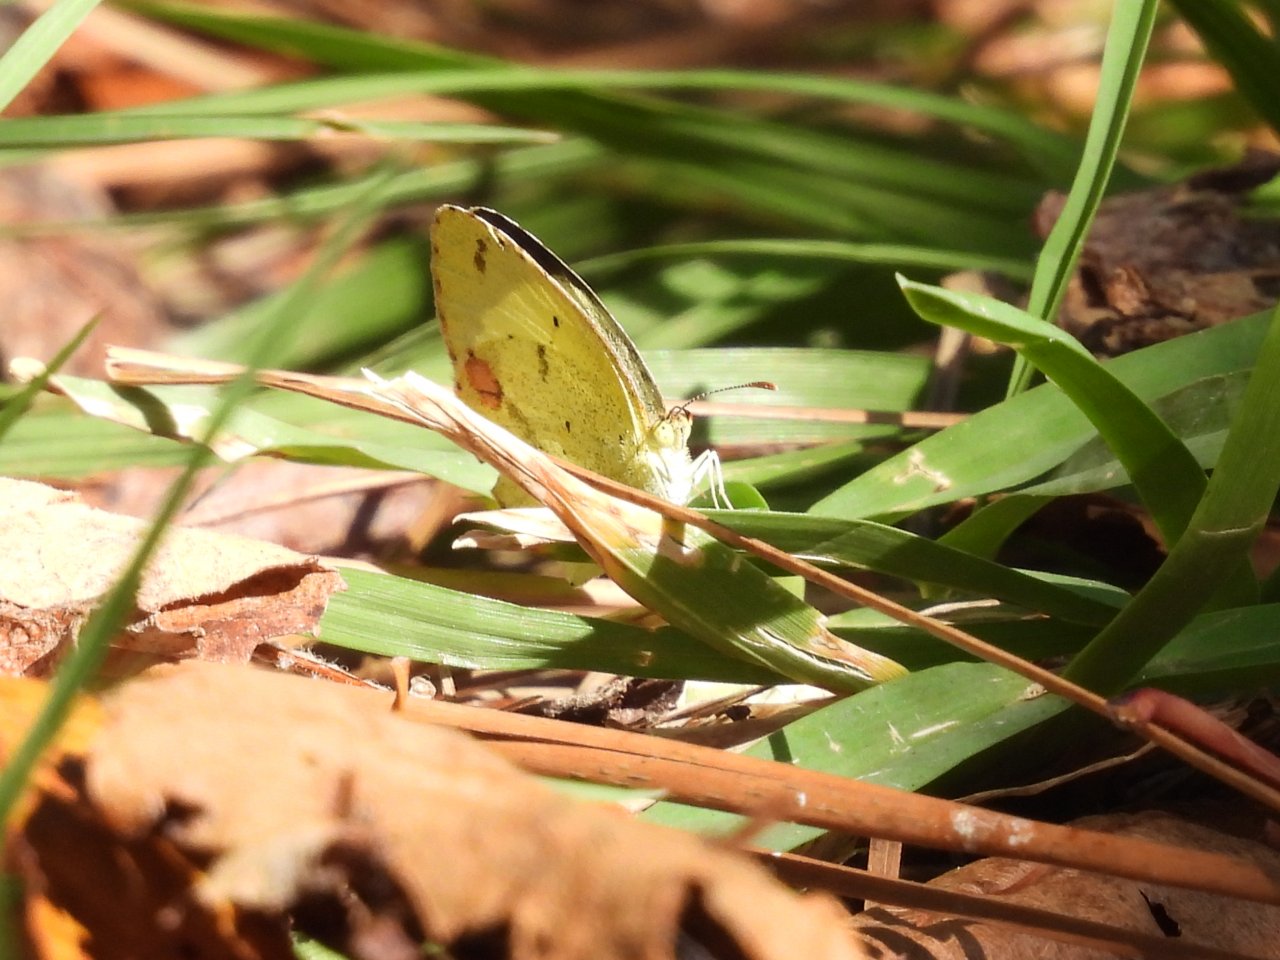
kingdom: Animalia
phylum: Arthropoda
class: Insecta
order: Lepidoptera
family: Pieridae
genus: Pyrisitia
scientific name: Pyrisitia nise
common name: Mimosa Yellow
